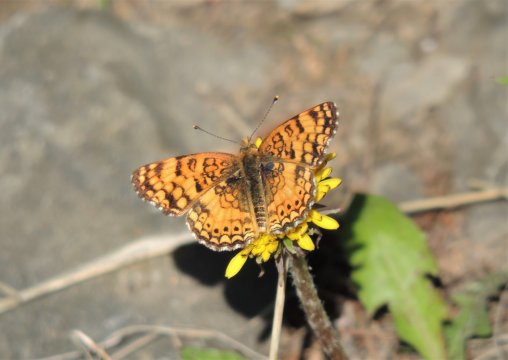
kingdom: Animalia
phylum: Arthropoda
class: Insecta
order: Lepidoptera
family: Nymphalidae
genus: Eresia
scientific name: Eresia aveyrona
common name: Mylitta Crescent
